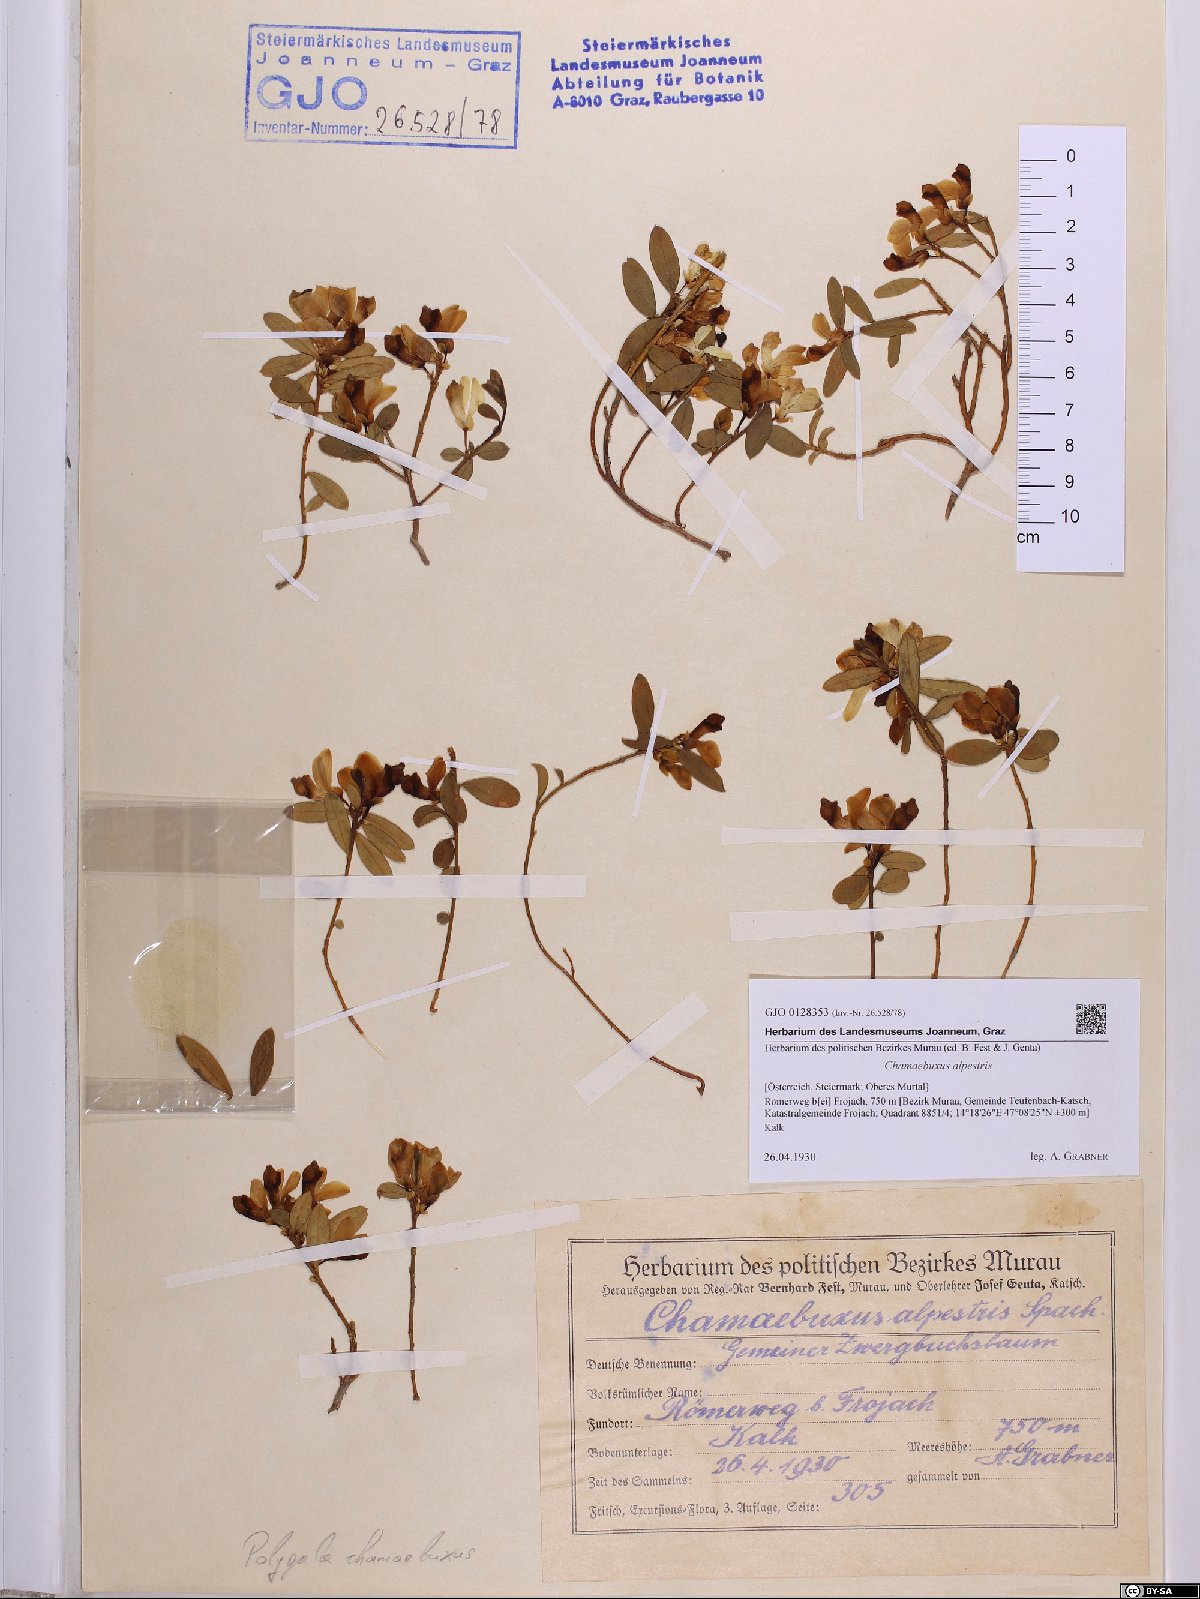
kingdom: Plantae
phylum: Tracheophyta
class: Magnoliopsida
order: Fabales
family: Polygalaceae
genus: Polygaloides
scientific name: Polygaloides chamaebuxus
